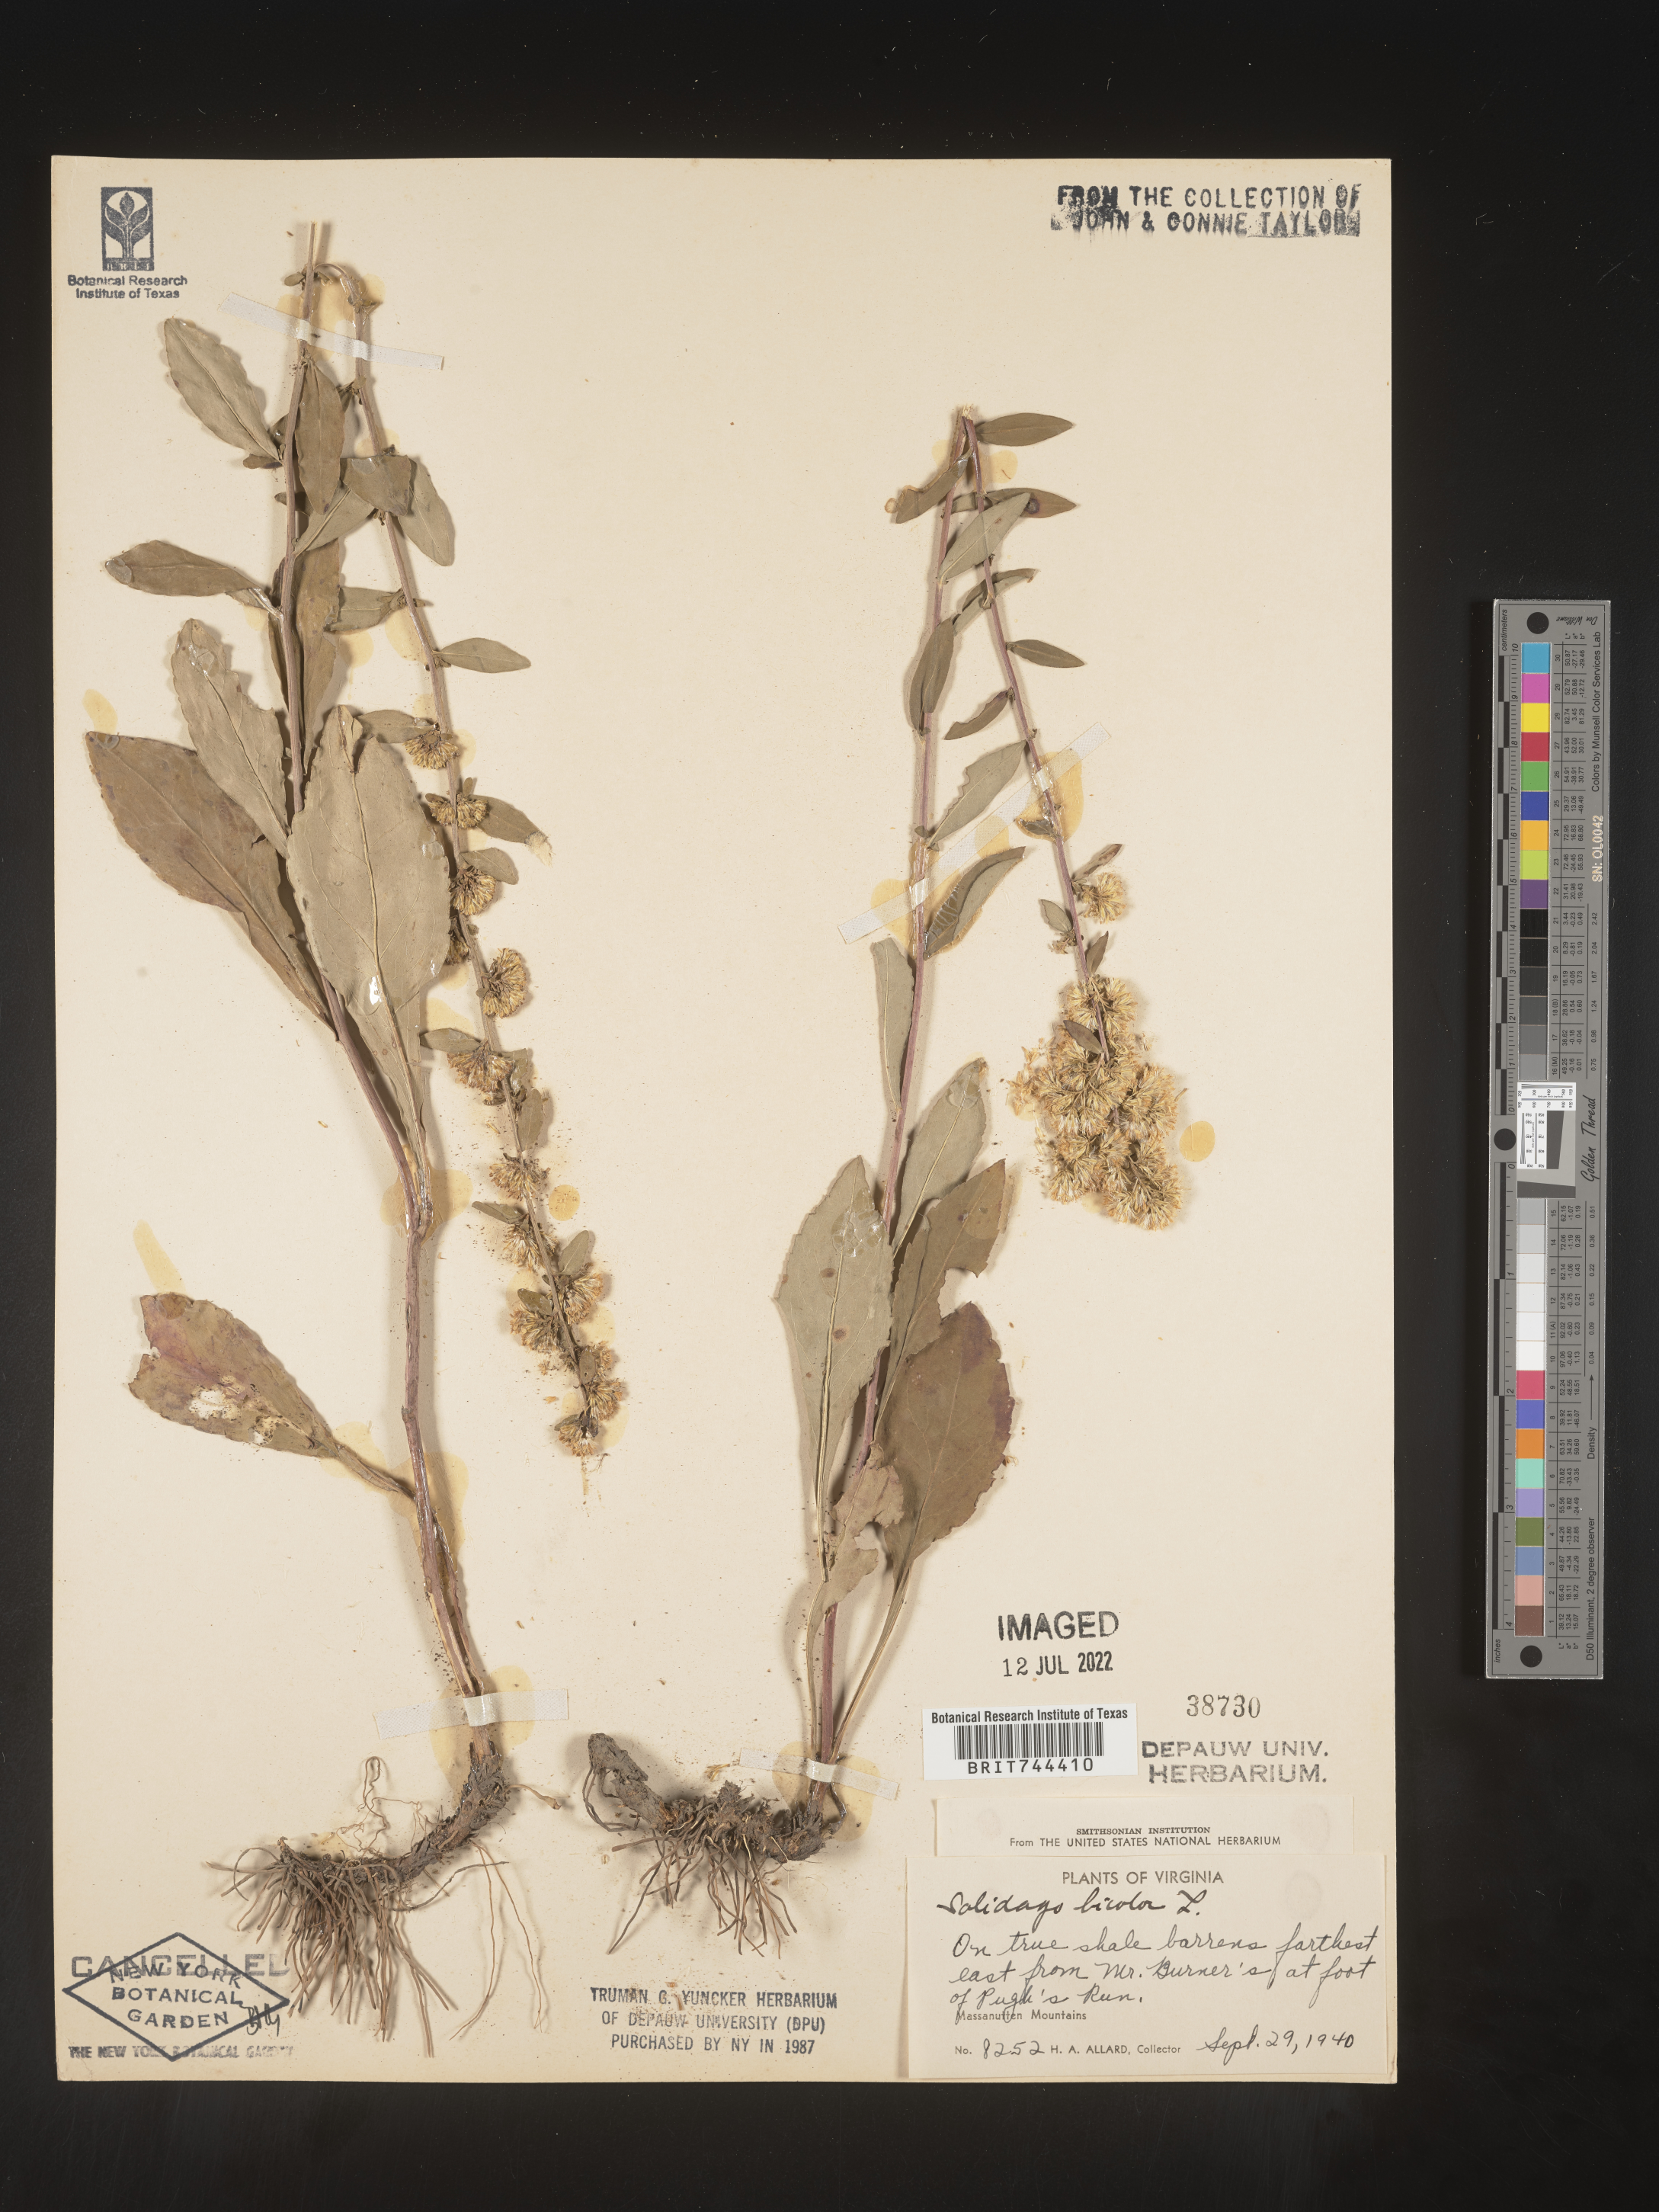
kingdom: Plantae
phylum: Tracheophyta
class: Magnoliopsida
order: Asterales
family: Asteraceae
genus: Solidago
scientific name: Solidago bicolor
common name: Silverrod
